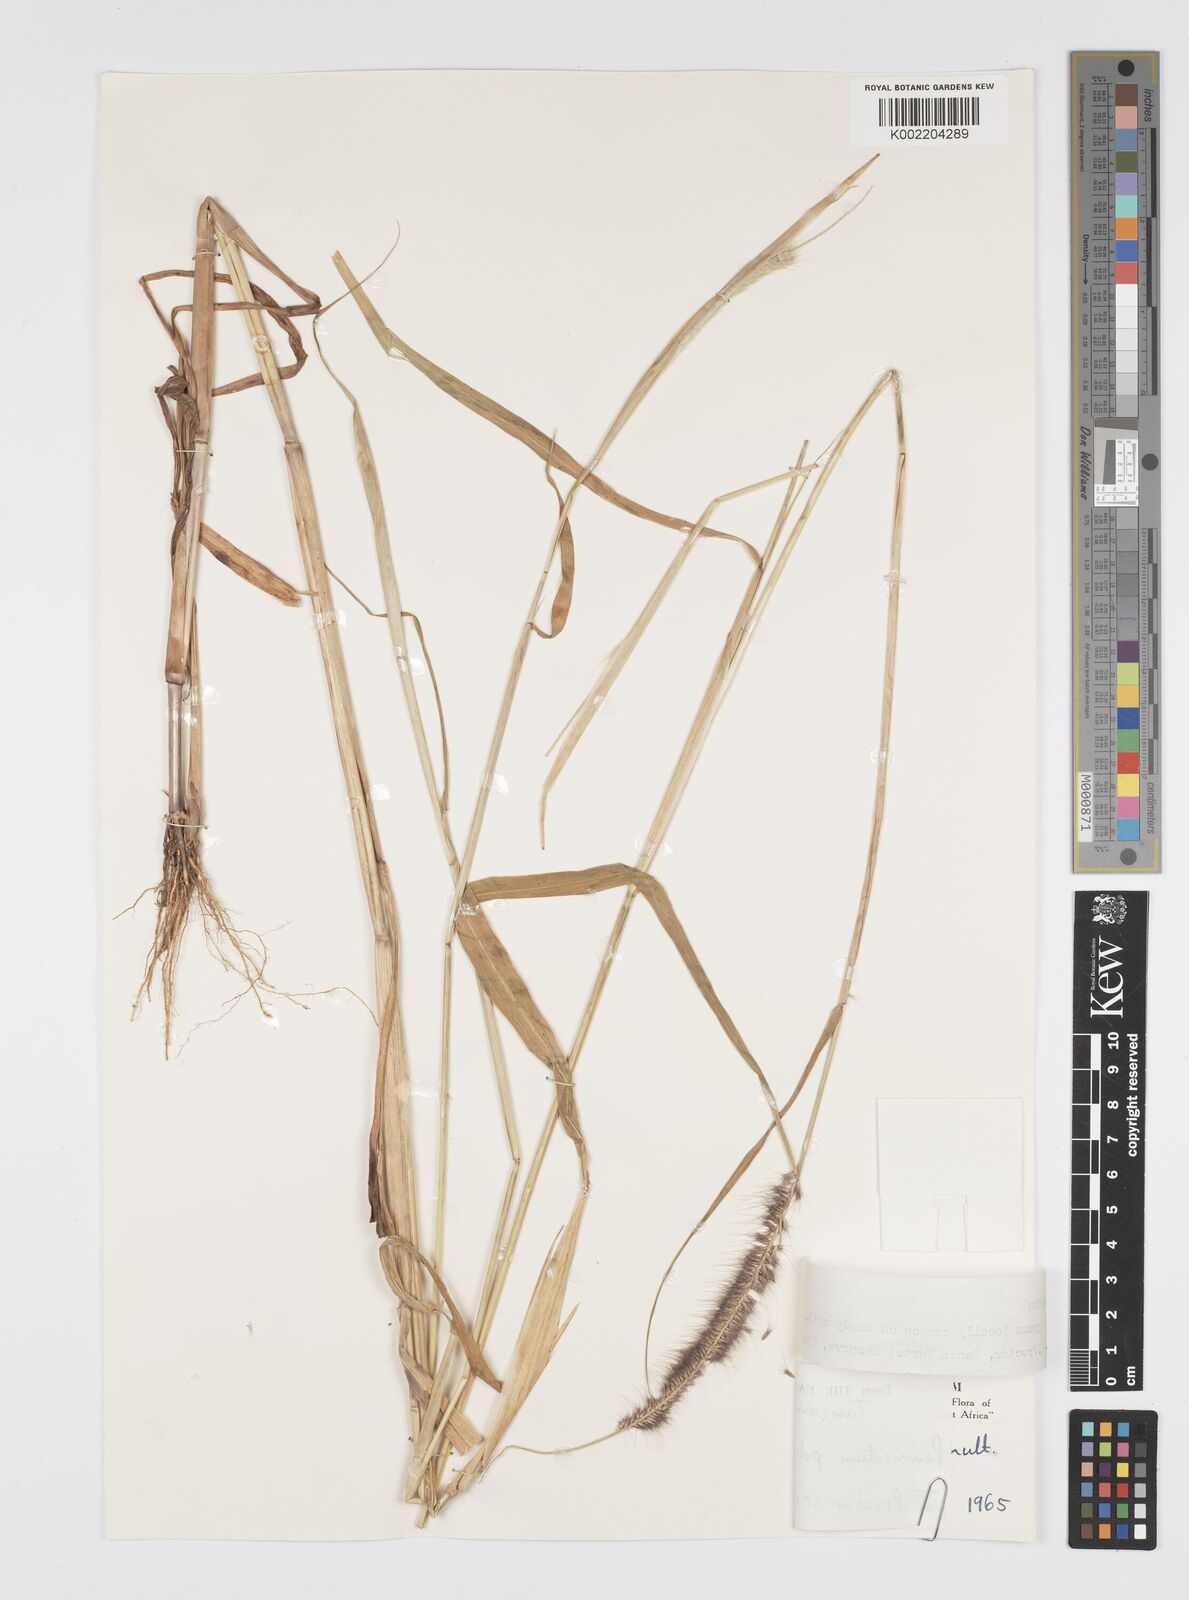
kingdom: Plantae
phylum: Tracheophyta
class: Liliopsida
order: Poales
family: Poaceae
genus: Setaria
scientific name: Setaria parviflora
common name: Knotroot bristle-grass
